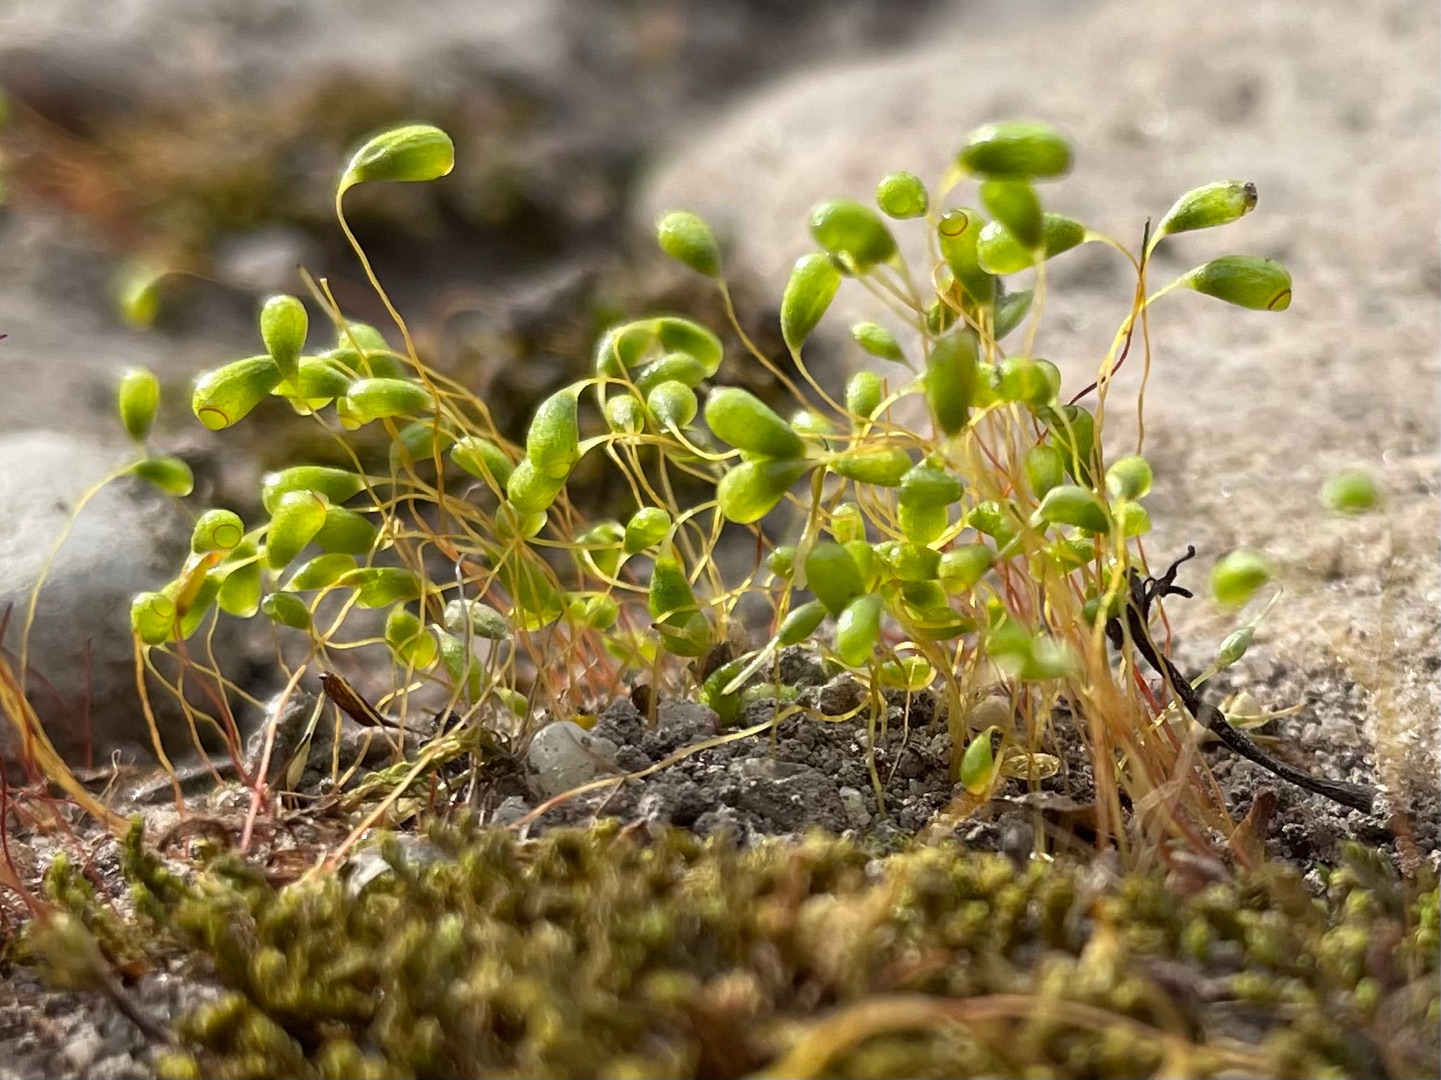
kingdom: Plantae
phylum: Bryophyta
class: Bryopsida
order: Funariales
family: Funariaceae
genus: Funaria
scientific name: Funaria hygrometrica
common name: Almindelig snobørste
